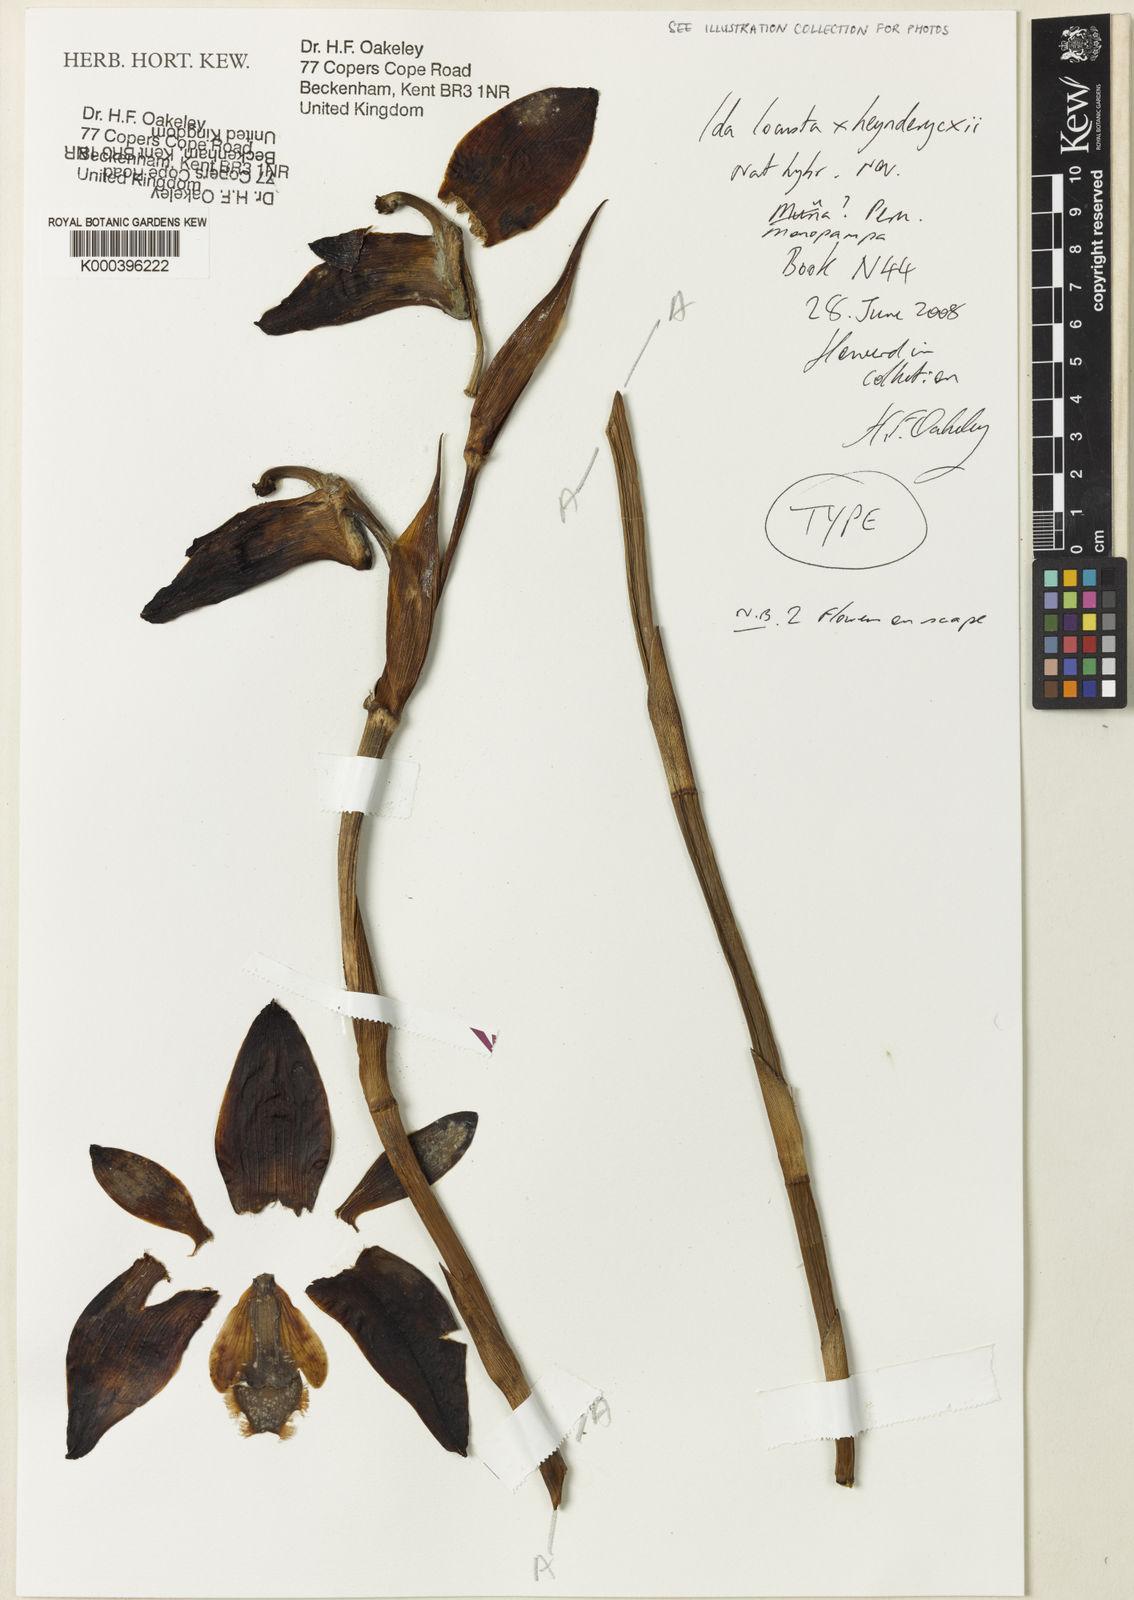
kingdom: Plantae
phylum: Tracheophyta
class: Liliopsida
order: Asparagales
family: Orchidaceae
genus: Ida
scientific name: Ida locusta
